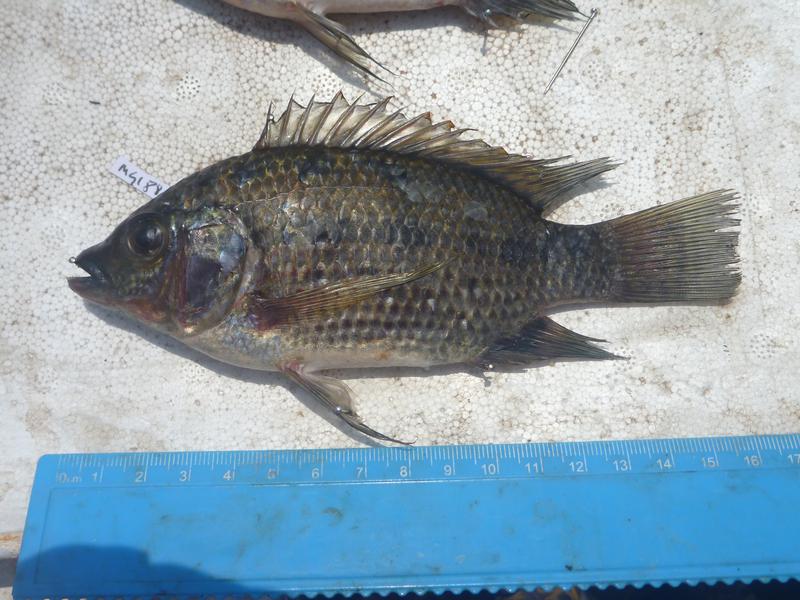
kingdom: Animalia
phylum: Chordata
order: Perciformes
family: Cichlidae
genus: Oreochromis
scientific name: Oreochromis karomo
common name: Karomo
